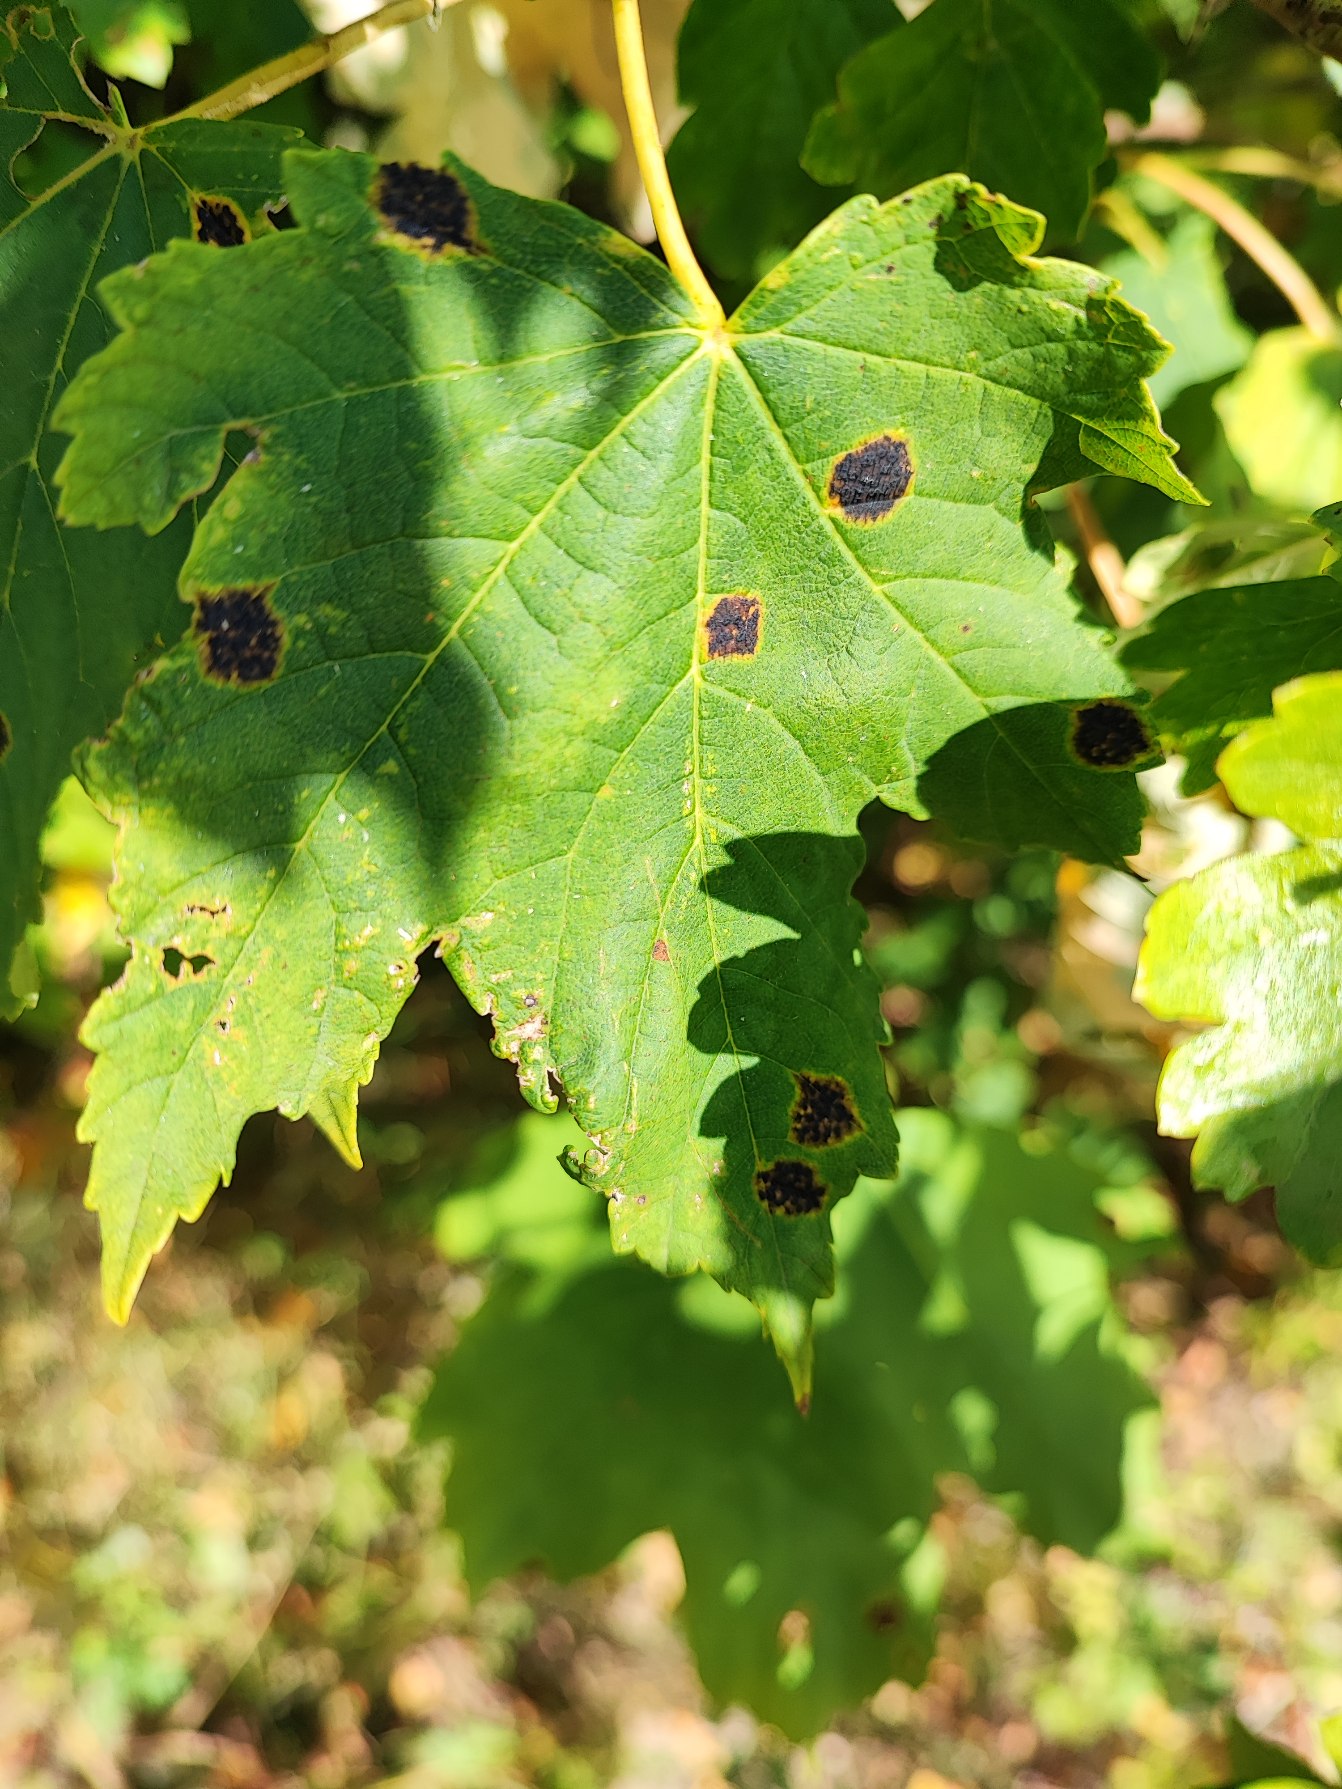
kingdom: Fungi
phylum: Ascomycota
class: Leotiomycetes
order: Rhytismatales
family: Rhytismataceae
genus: Rhytisma
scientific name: Rhytisma acerinum
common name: Ahorn-rynkeplet
